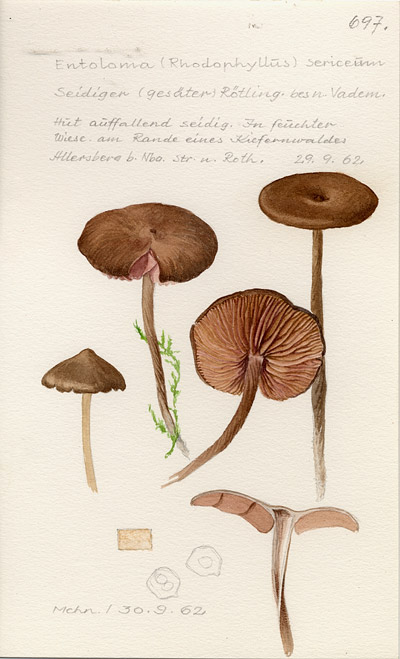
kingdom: Fungi
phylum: Basidiomycota
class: Agaricomycetes
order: Agaricales
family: Entolomataceae
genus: Entoloma
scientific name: Entoloma sericellum
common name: Cream pinkgill
